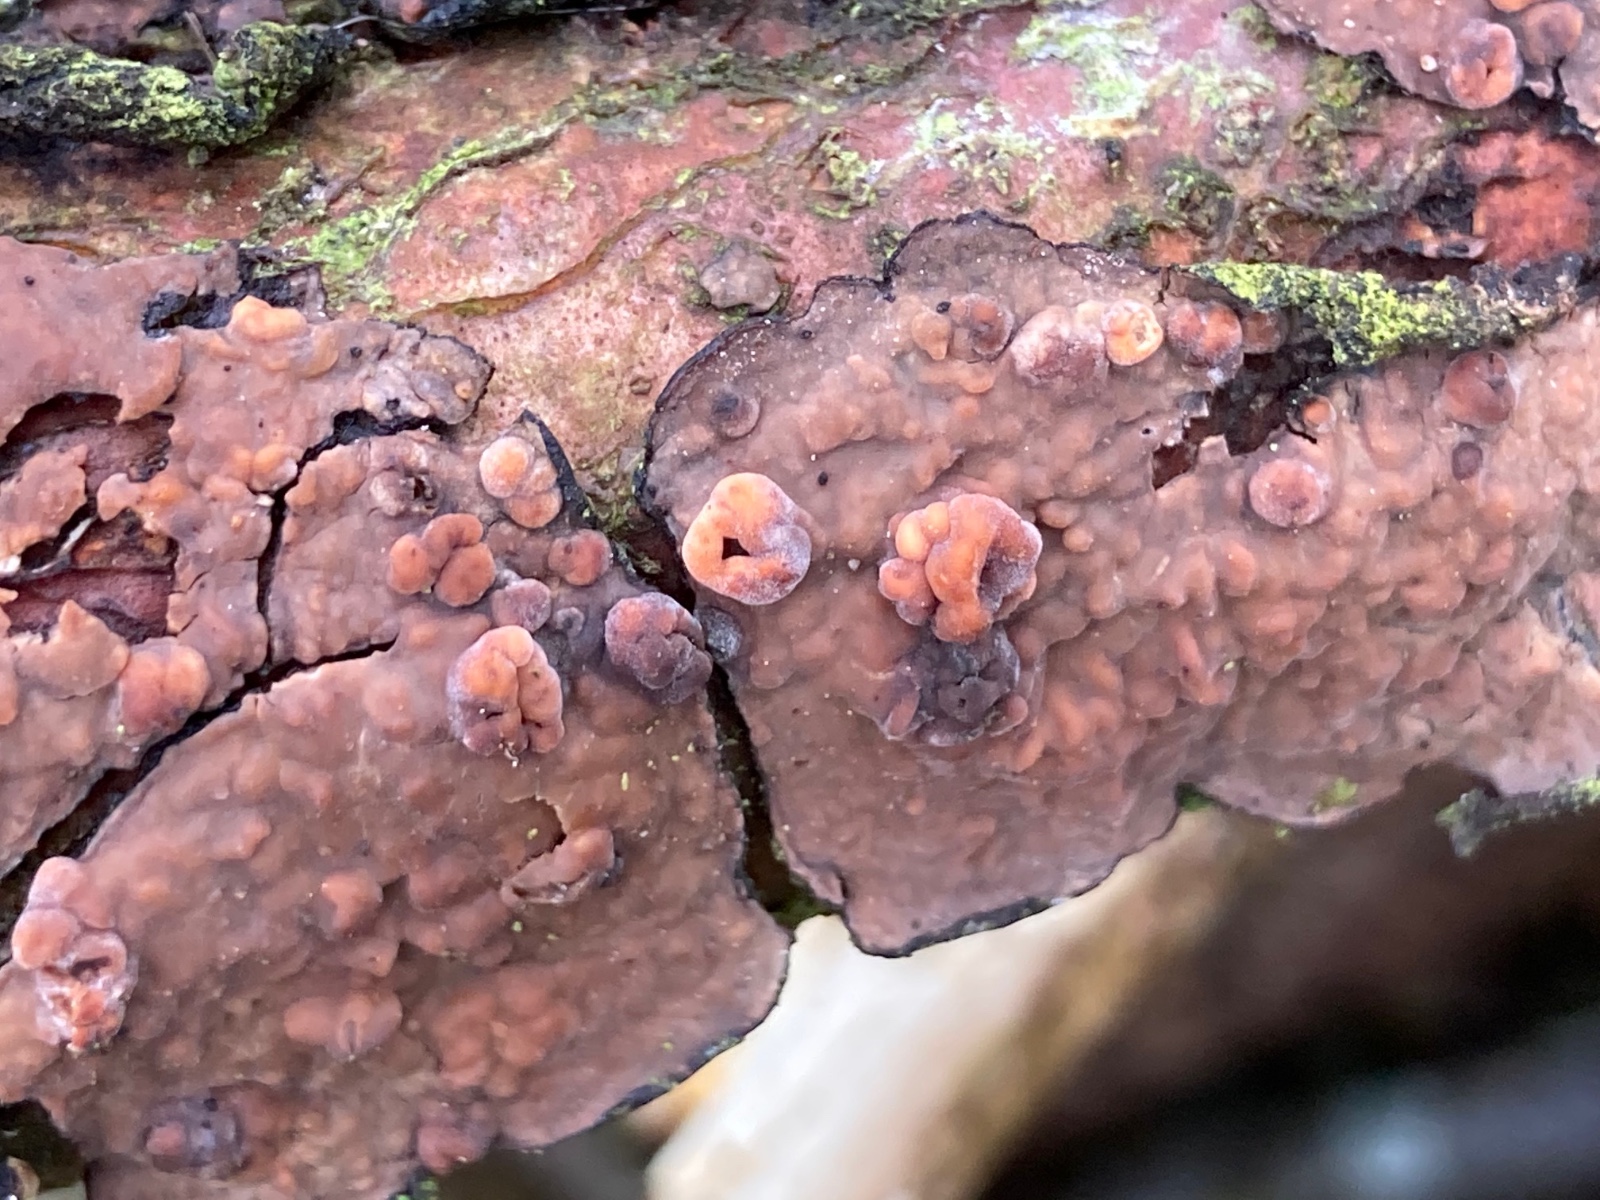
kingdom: Fungi
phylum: Basidiomycota
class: Pucciniomycetes
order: Platygloeales
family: Platygloeaceae
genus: Platygloea
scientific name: Platygloea
